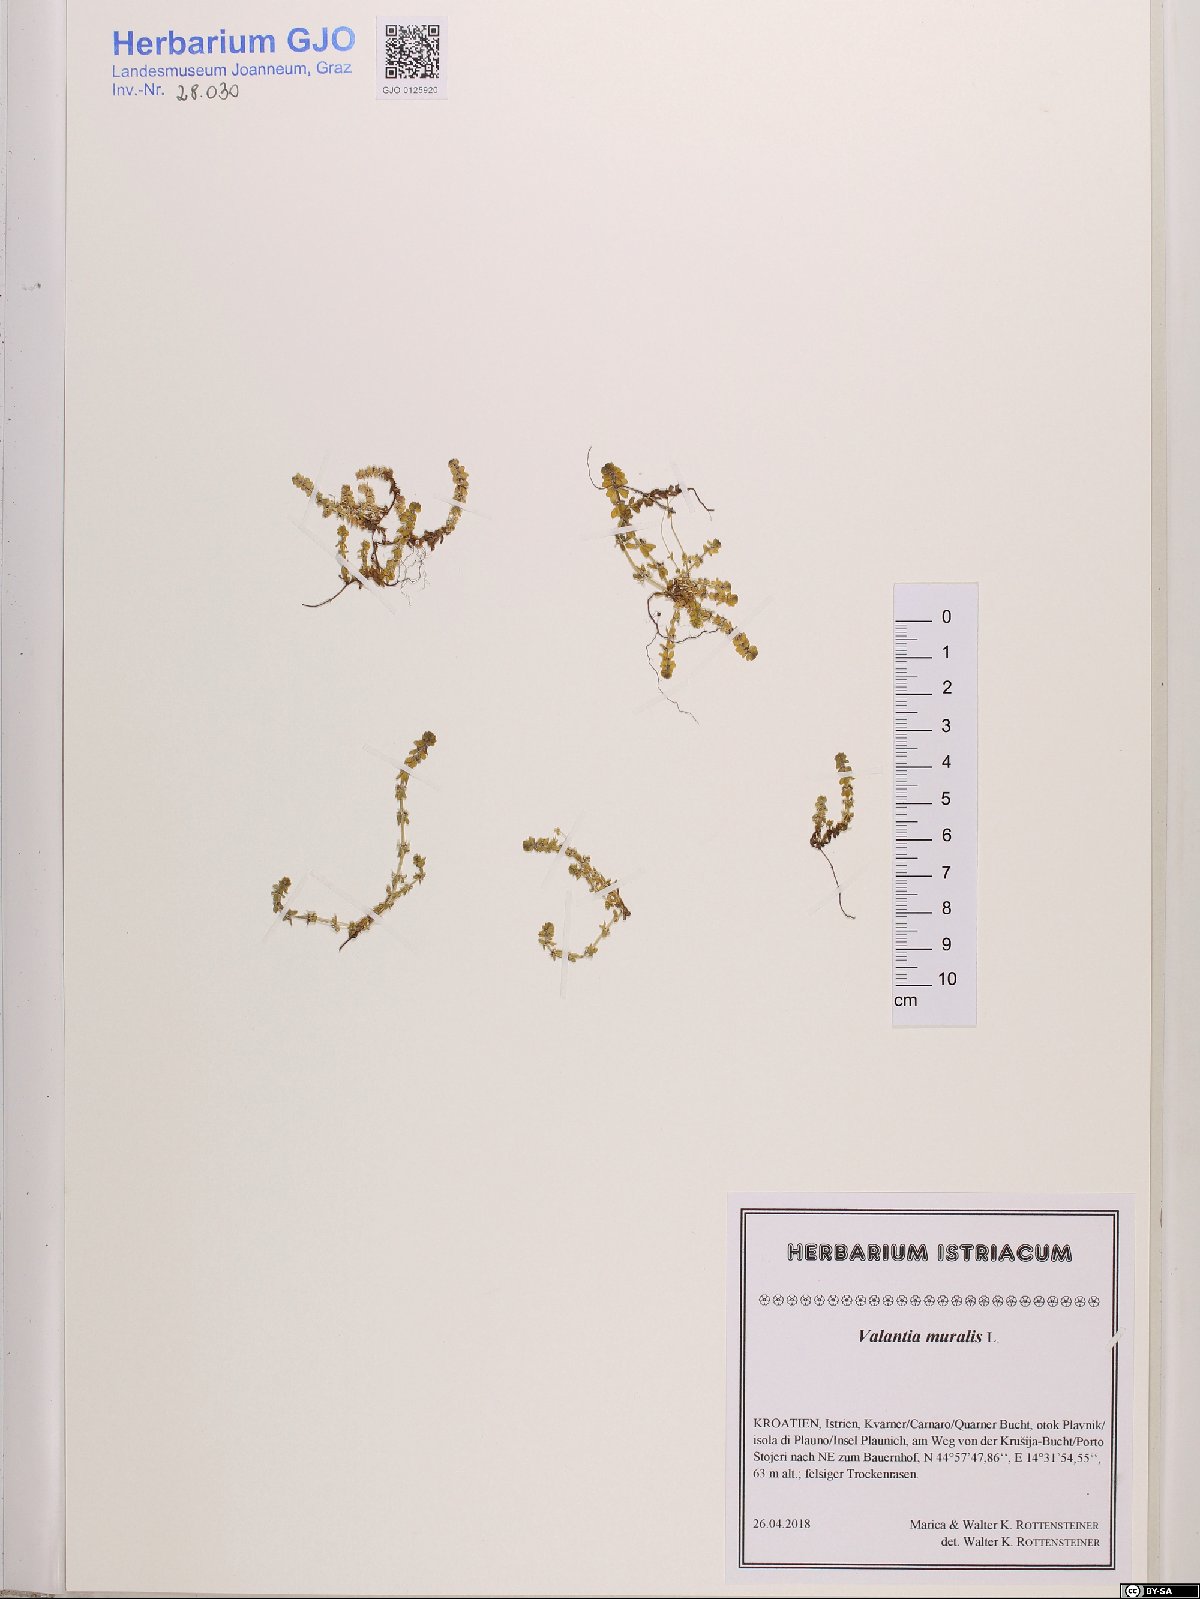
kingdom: Plantae
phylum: Tracheophyta
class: Magnoliopsida
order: Gentianales
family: Rubiaceae
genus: Valantia
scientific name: Valantia muralis
